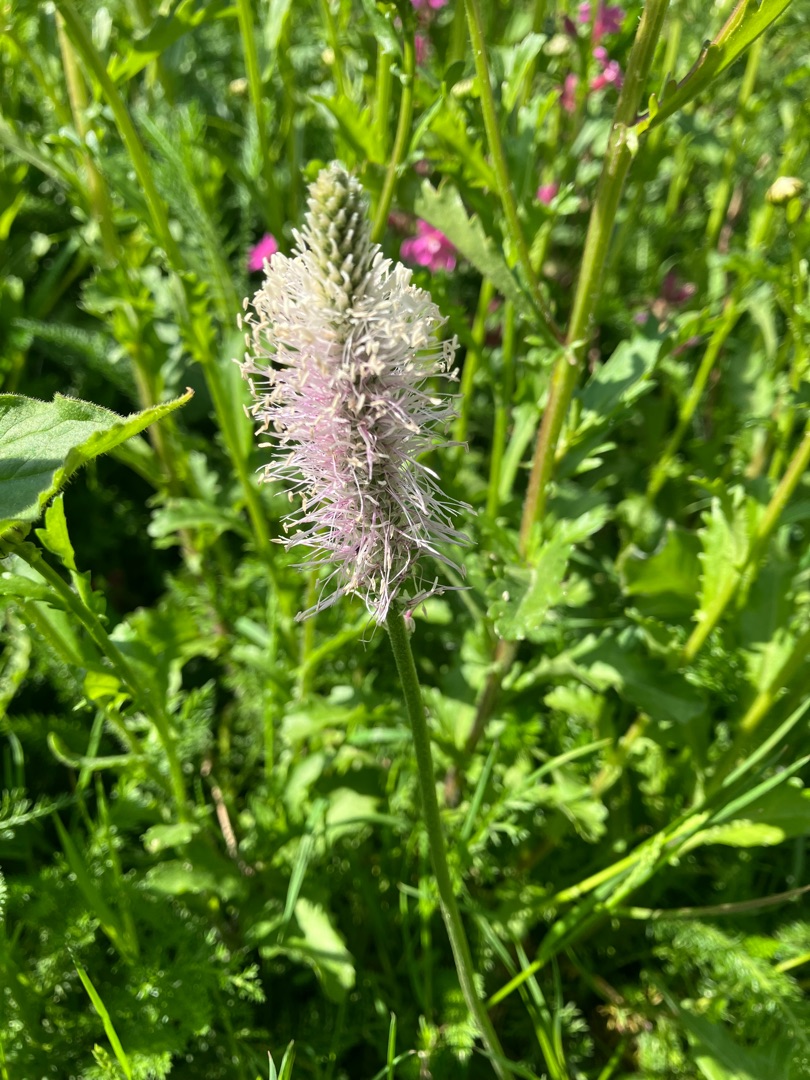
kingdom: Plantae
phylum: Tracheophyta
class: Magnoliopsida
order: Lamiales
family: Plantaginaceae
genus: Plantago
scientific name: Plantago media
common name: Dunet vejbred
